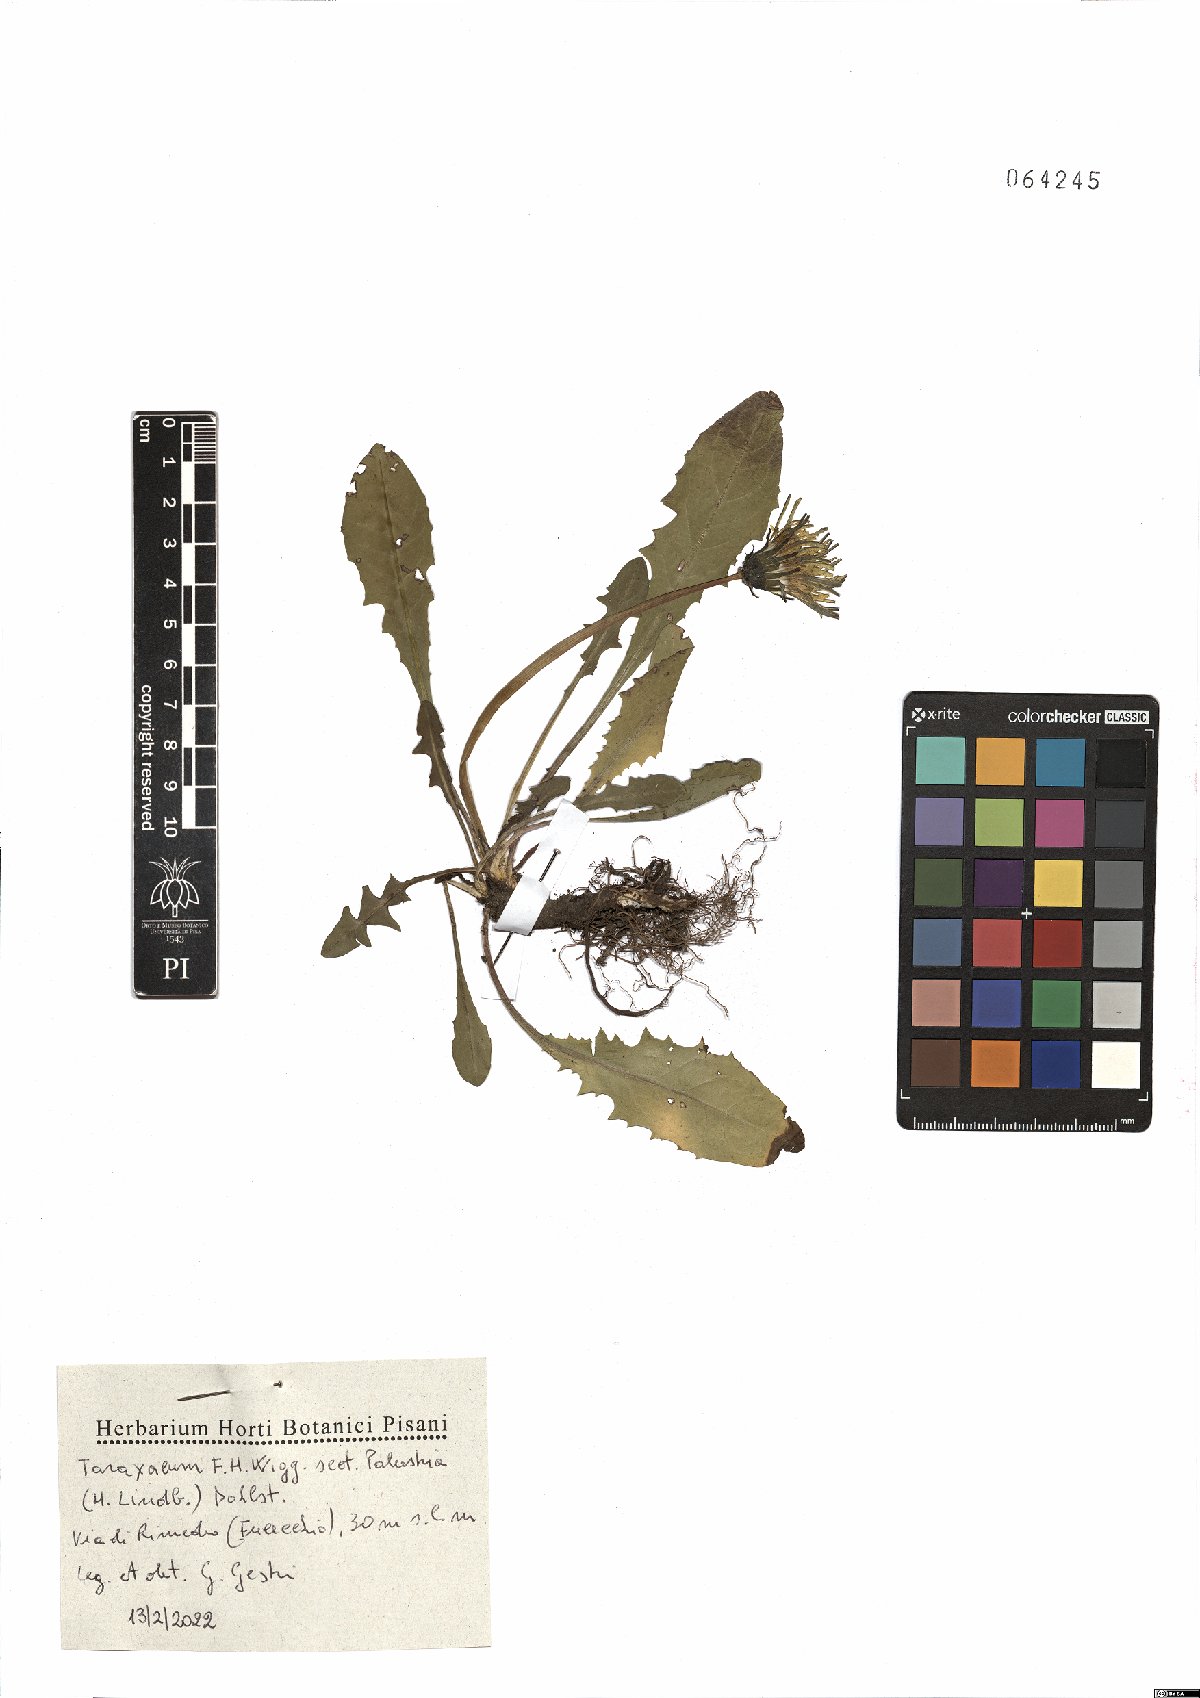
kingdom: Plantae
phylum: Tracheophyta
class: Magnoliopsida
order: Asterales
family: Asteraceae
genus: Taraxacum
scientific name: Taraxacum palustria
